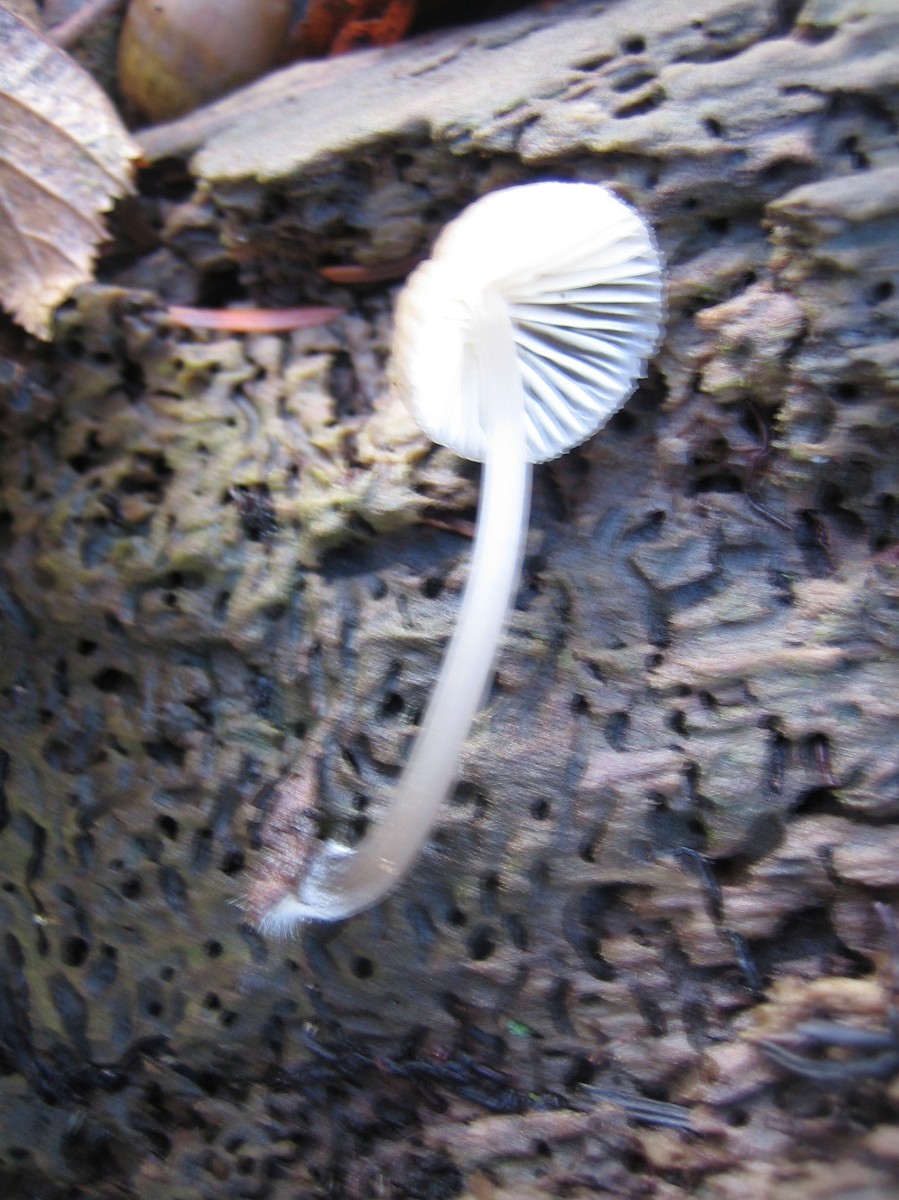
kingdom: Fungi
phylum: Basidiomycota
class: Agaricomycetes
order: Agaricales
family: Mycenaceae
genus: Mycena
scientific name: Mycena galericulata
